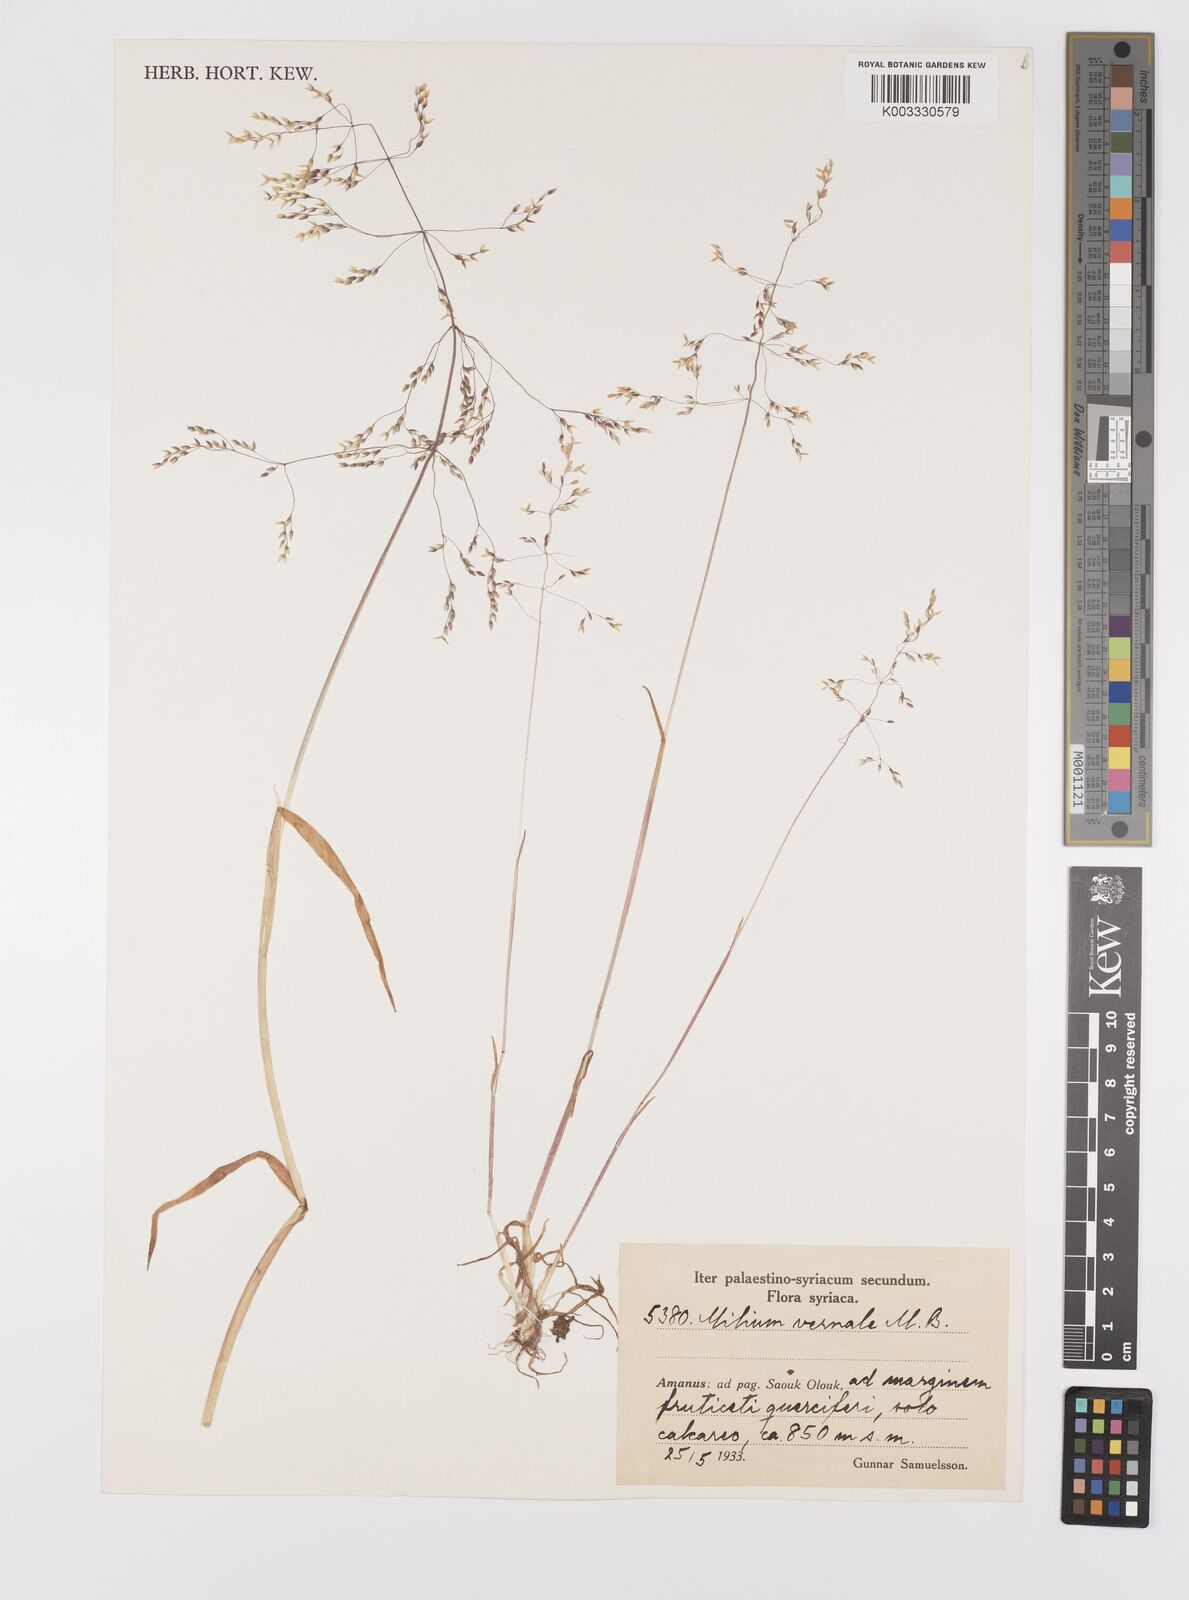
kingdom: Plantae
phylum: Tracheophyta
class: Liliopsida
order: Poales
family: Poaceae
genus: Milium
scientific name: Milium pedicellare
